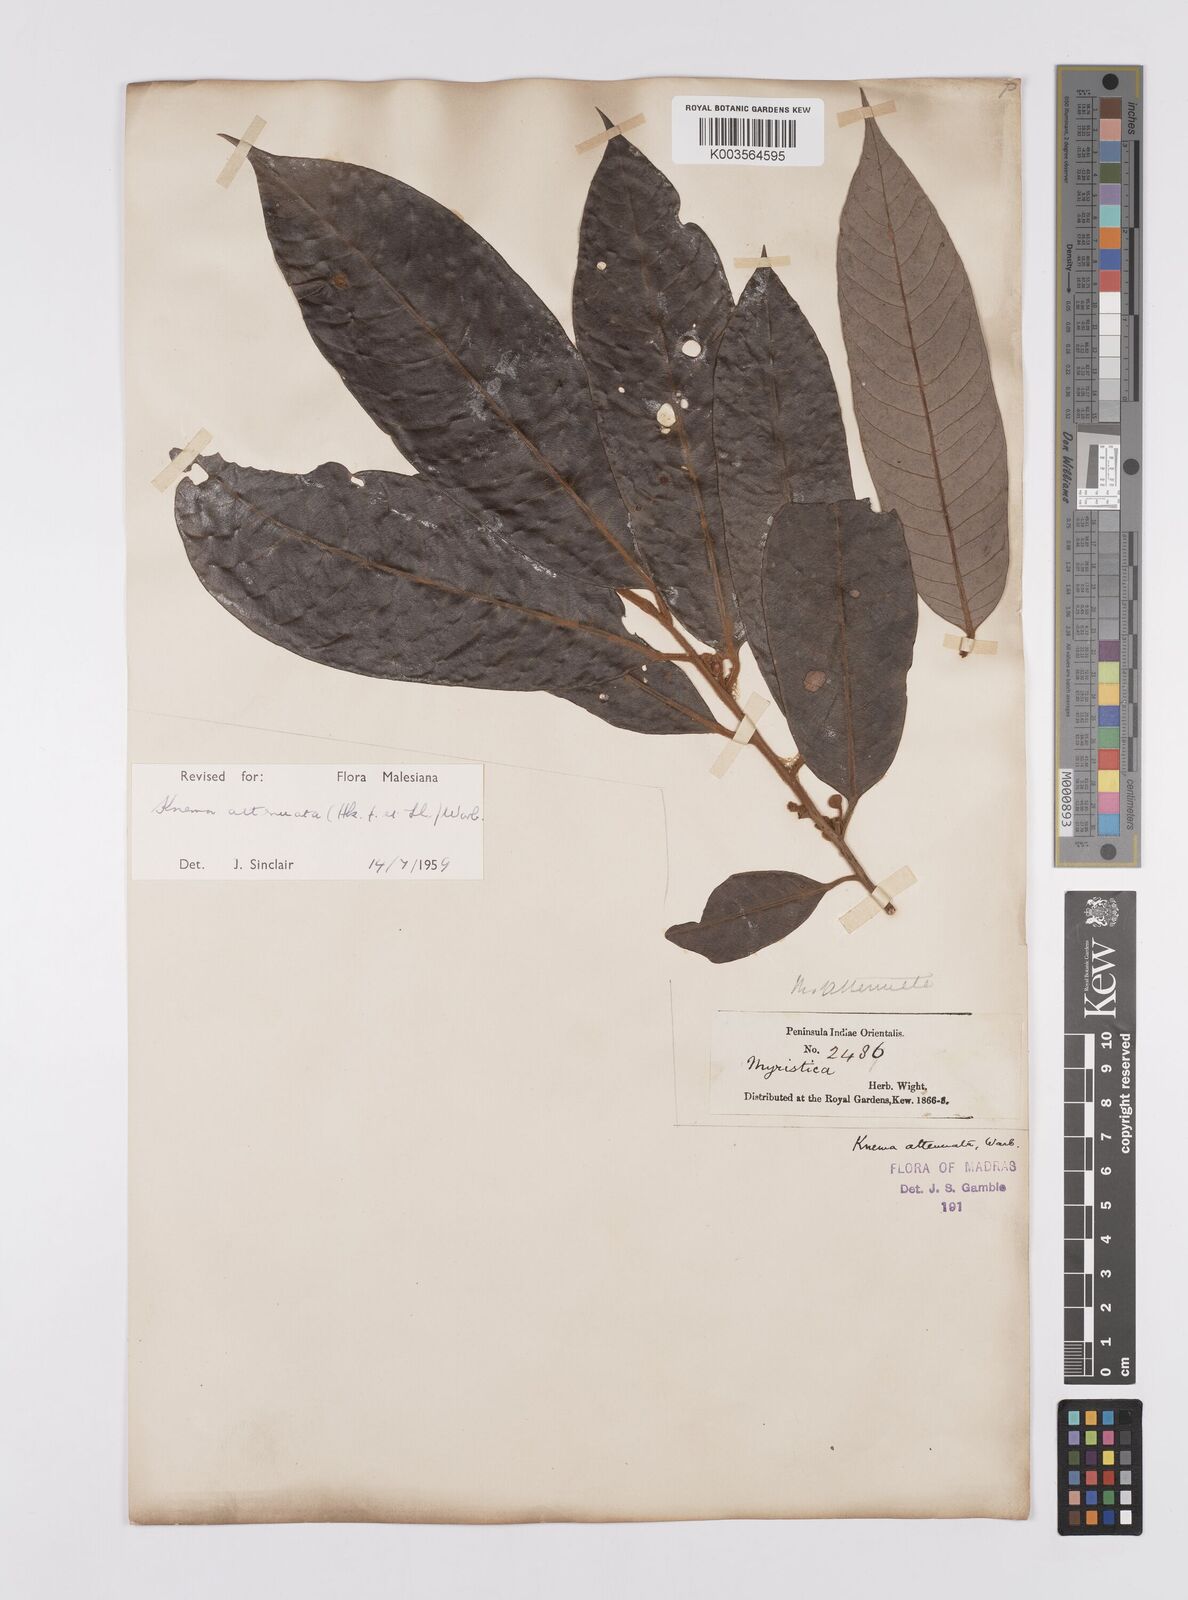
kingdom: Plantae
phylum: Tracheophyta
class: Magnoliopsida
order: Magnoliales
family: Myristicaceae
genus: Knema
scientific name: Knema attenuata
